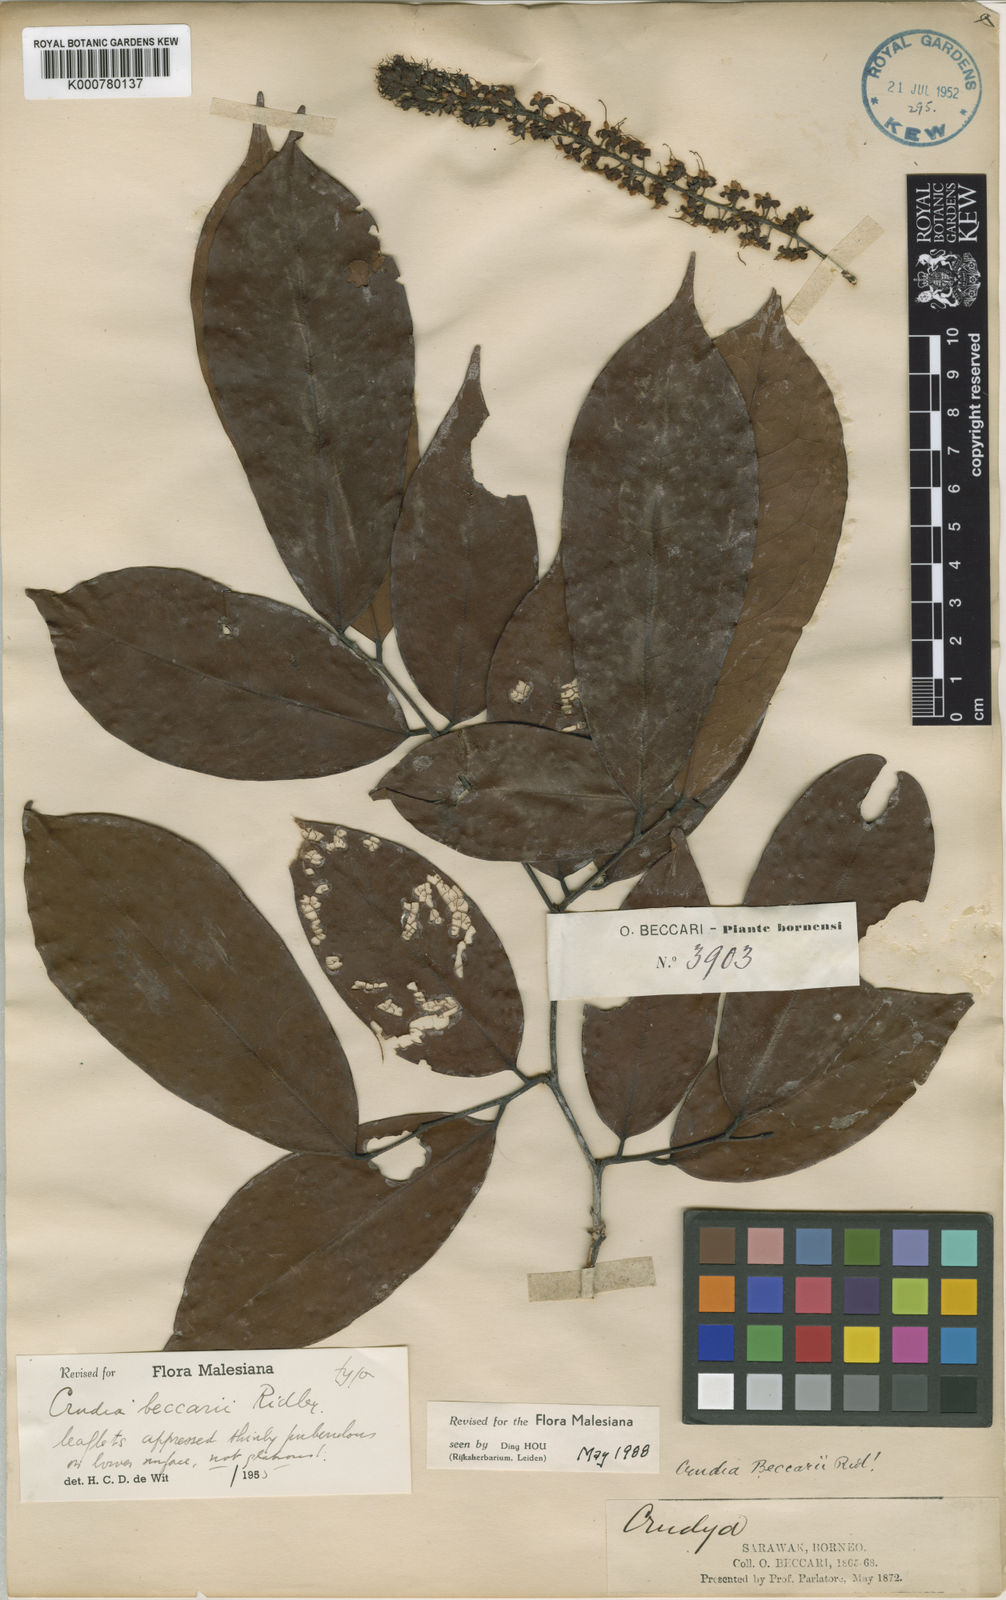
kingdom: Plantae
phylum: Tracheophyta
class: Magnoliopsida
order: Fabales
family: Fabaceae
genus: Crudia
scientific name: Crudia penduliflora
